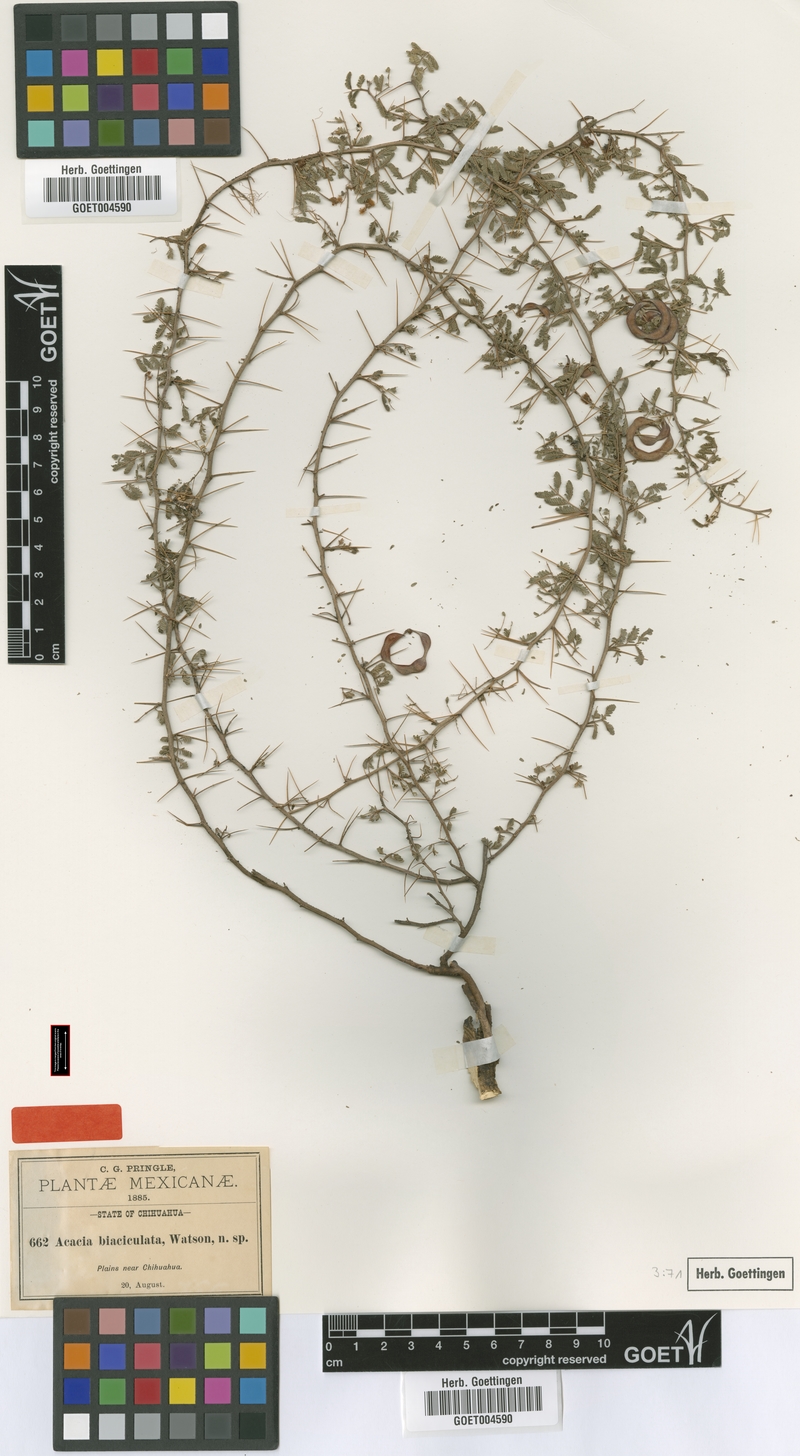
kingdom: Plantae
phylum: Tracheophyta
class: Magnoliopsida
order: Fabales
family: Fabaceae
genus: Vachellia
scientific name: Vachellia biaciculata
